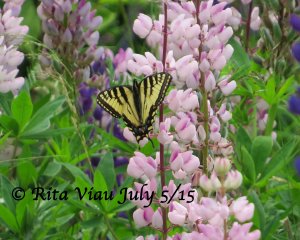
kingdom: Animalia
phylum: Arthropoda
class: Insecta
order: Lepidoptera
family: Papilionidae
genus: Pterourus
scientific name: Pterourus canadensis
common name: Canadian Tiger Swallowtail
